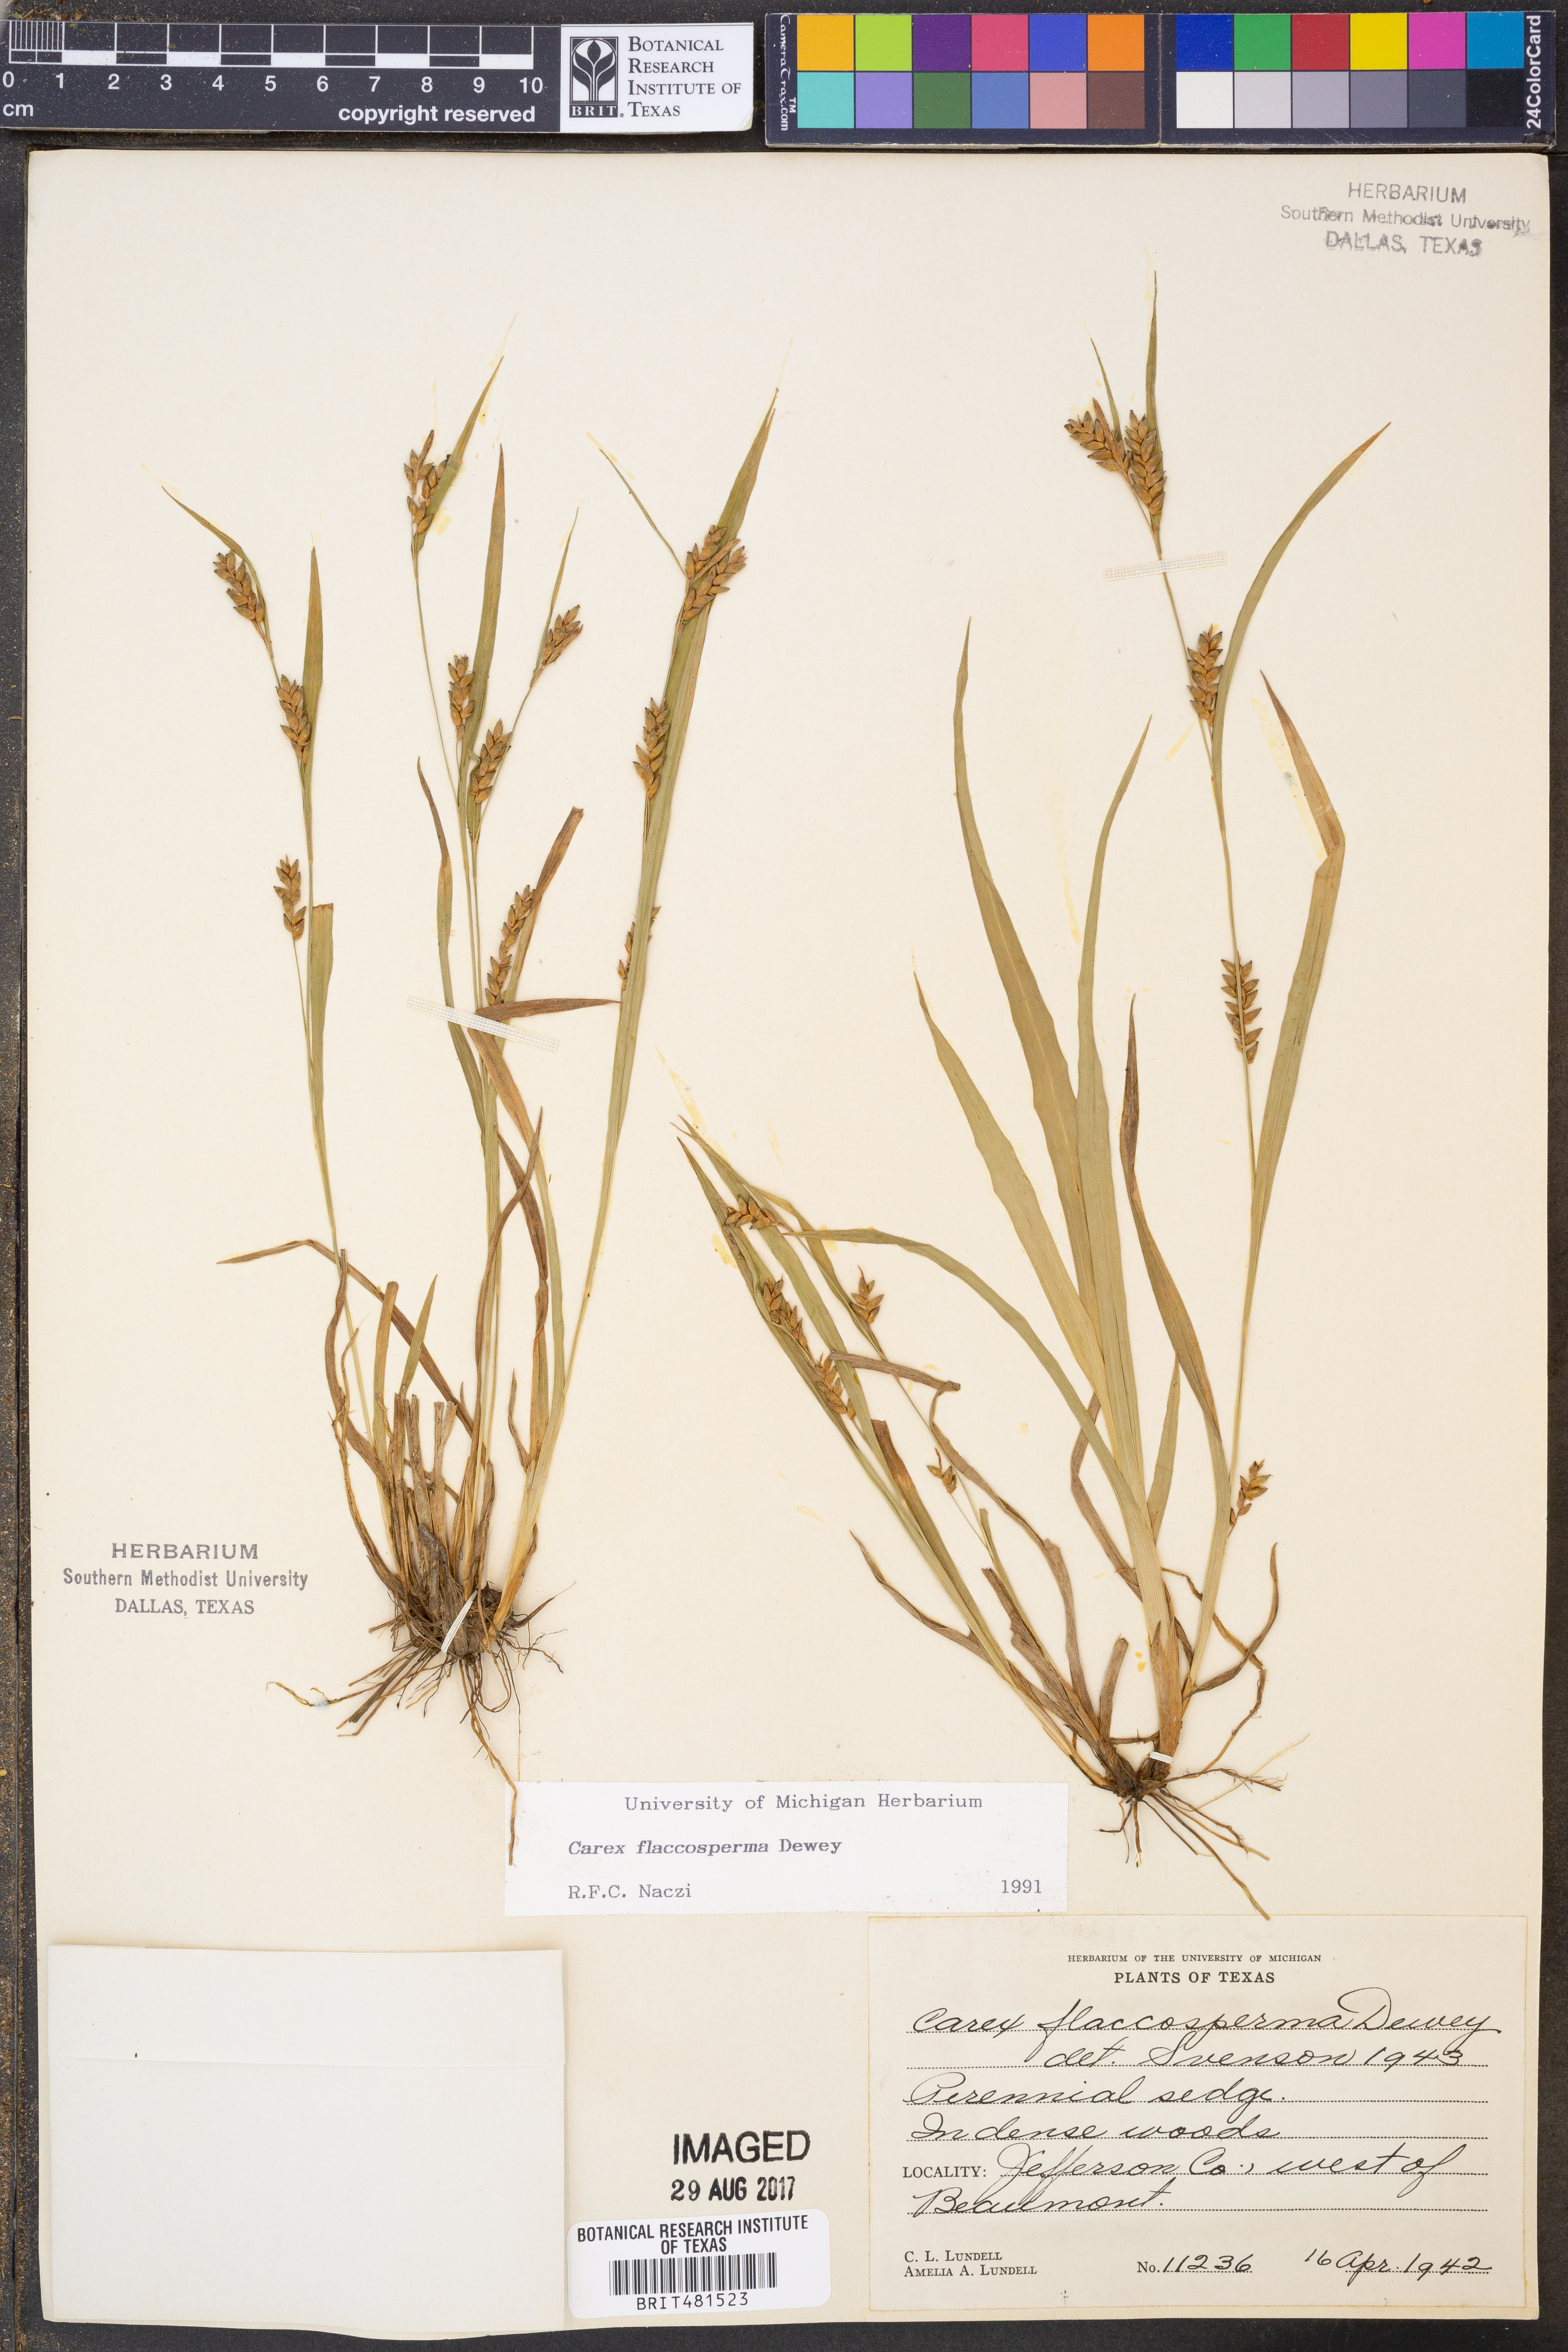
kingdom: Plantae
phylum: Tracheophyta
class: Liliopsida
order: Poales
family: Cyperaceae
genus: Carex
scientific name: Carex flaccosperma
